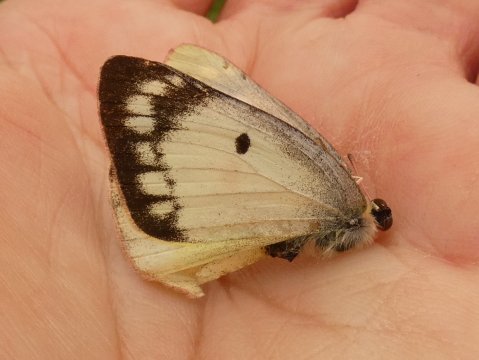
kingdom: Animalia
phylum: Arthropoda
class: Insecta
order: Lepidoptera
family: Pieridae
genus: Colias
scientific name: Colias philodice
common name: Clouded Sulphur
